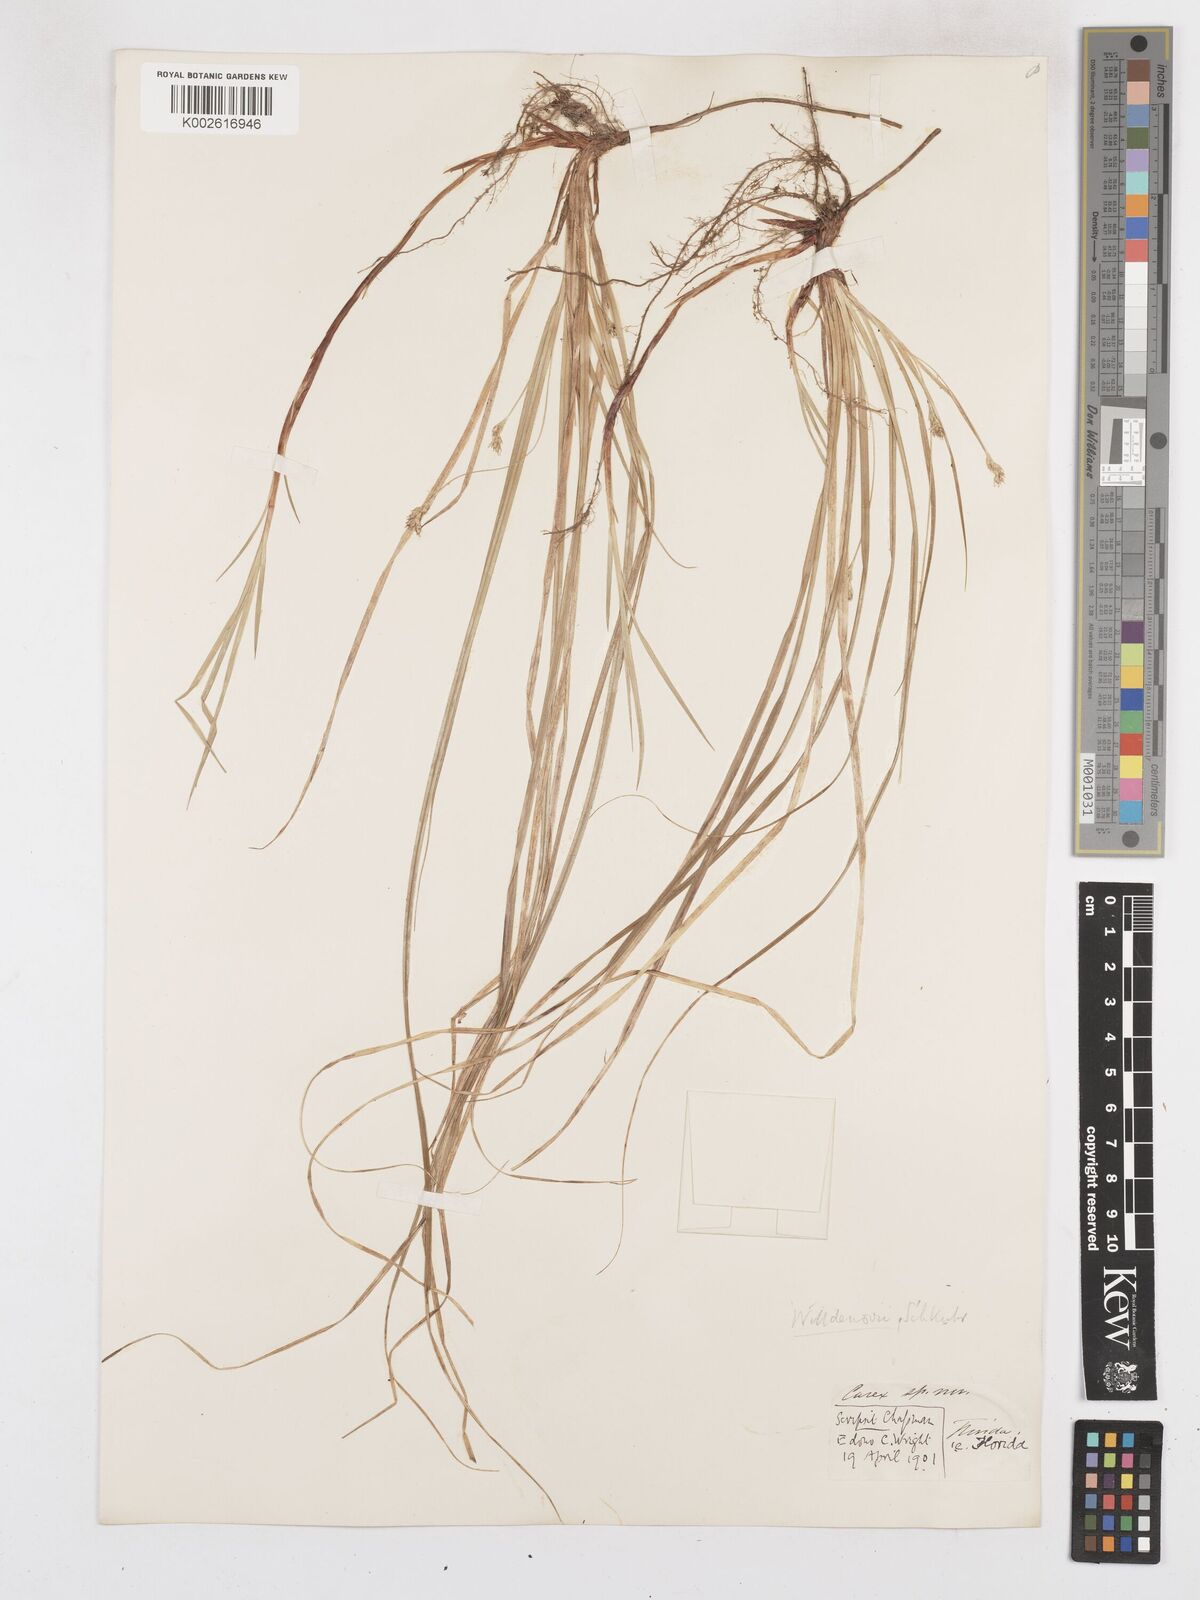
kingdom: Plantae
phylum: Tracheophyta
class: Liliopsida
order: Poales
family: Cyperaceae
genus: Carex
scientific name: Carex willdenowii
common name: Willdenow's sedge
